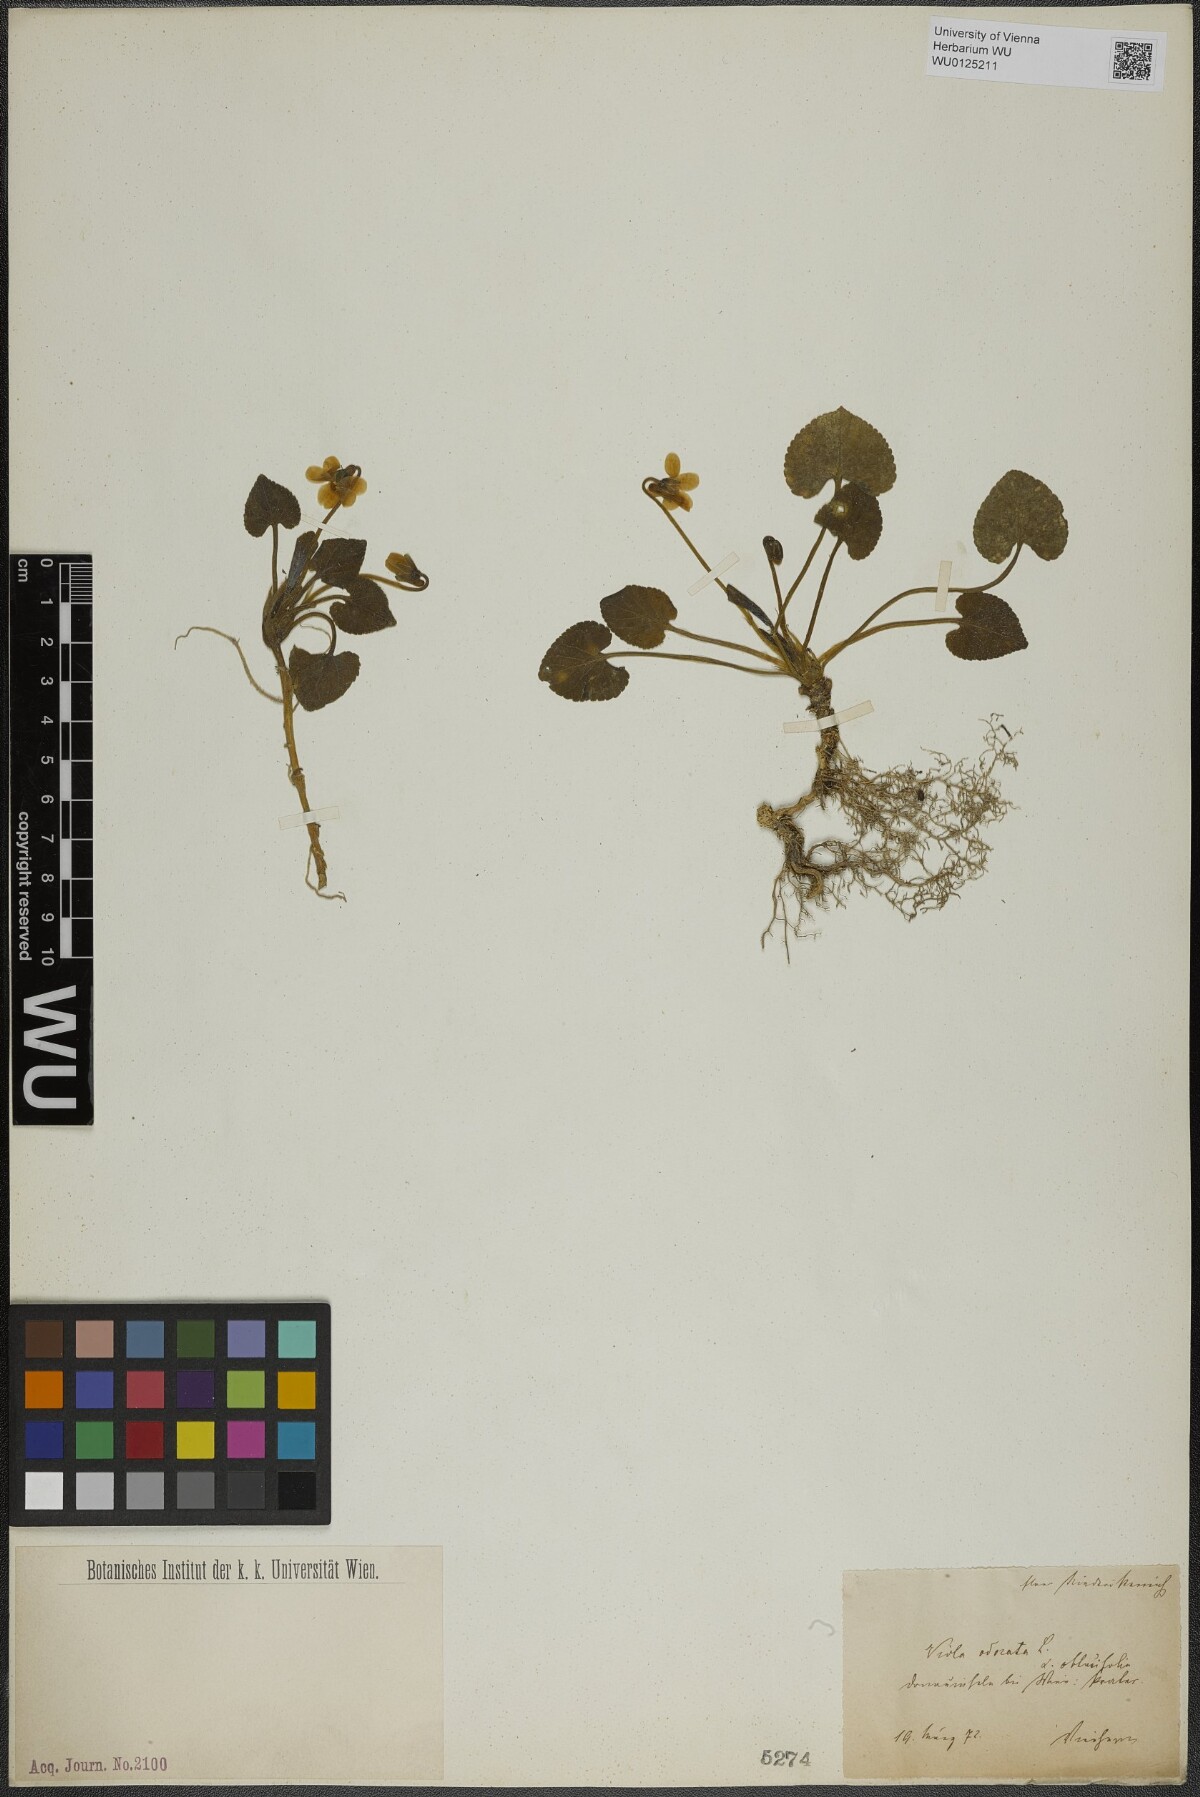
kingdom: Plantae
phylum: Tracheophyta
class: Magnoliopsida
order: Malpighiales
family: Violaceae
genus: Viola
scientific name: Viola odorata
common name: Sweet violet
